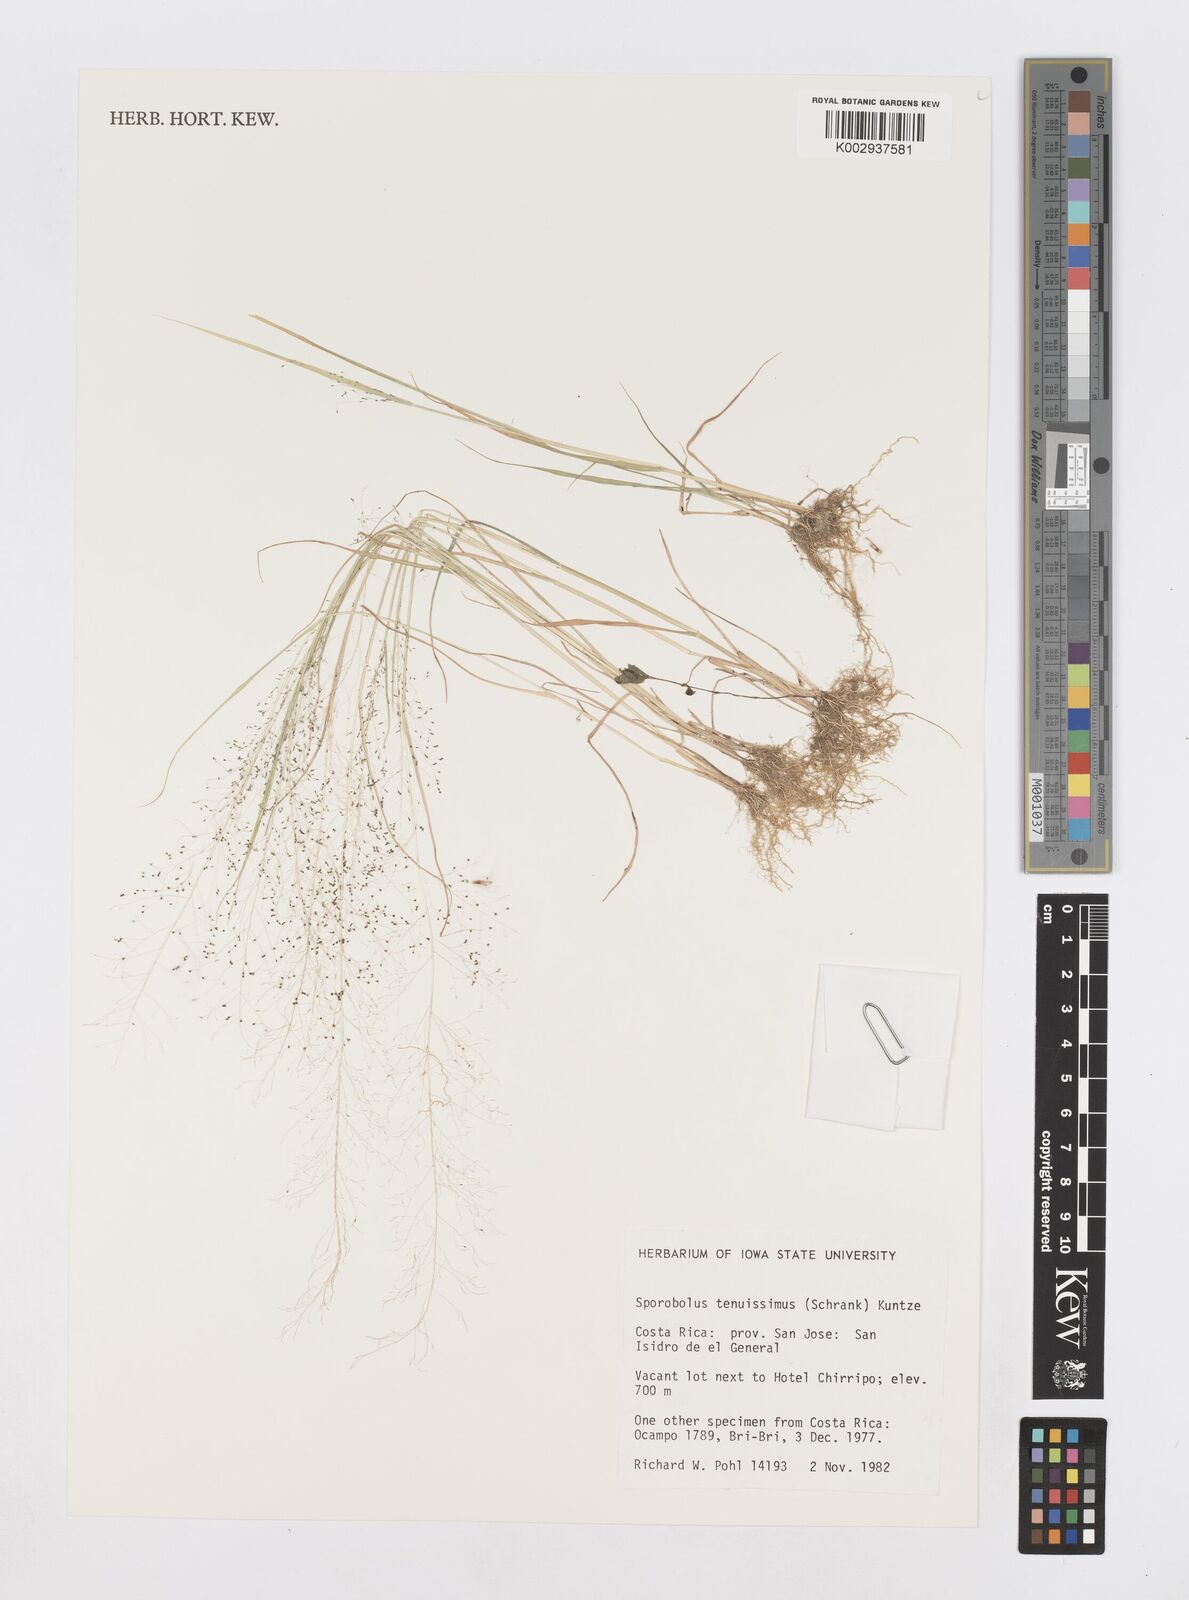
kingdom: Plantae
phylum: Tracheophyta
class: Liliopsida
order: Poales
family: Poaceae
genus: Sporobolus
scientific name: Sporobolus tenuissimus
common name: Tropical dropseed
